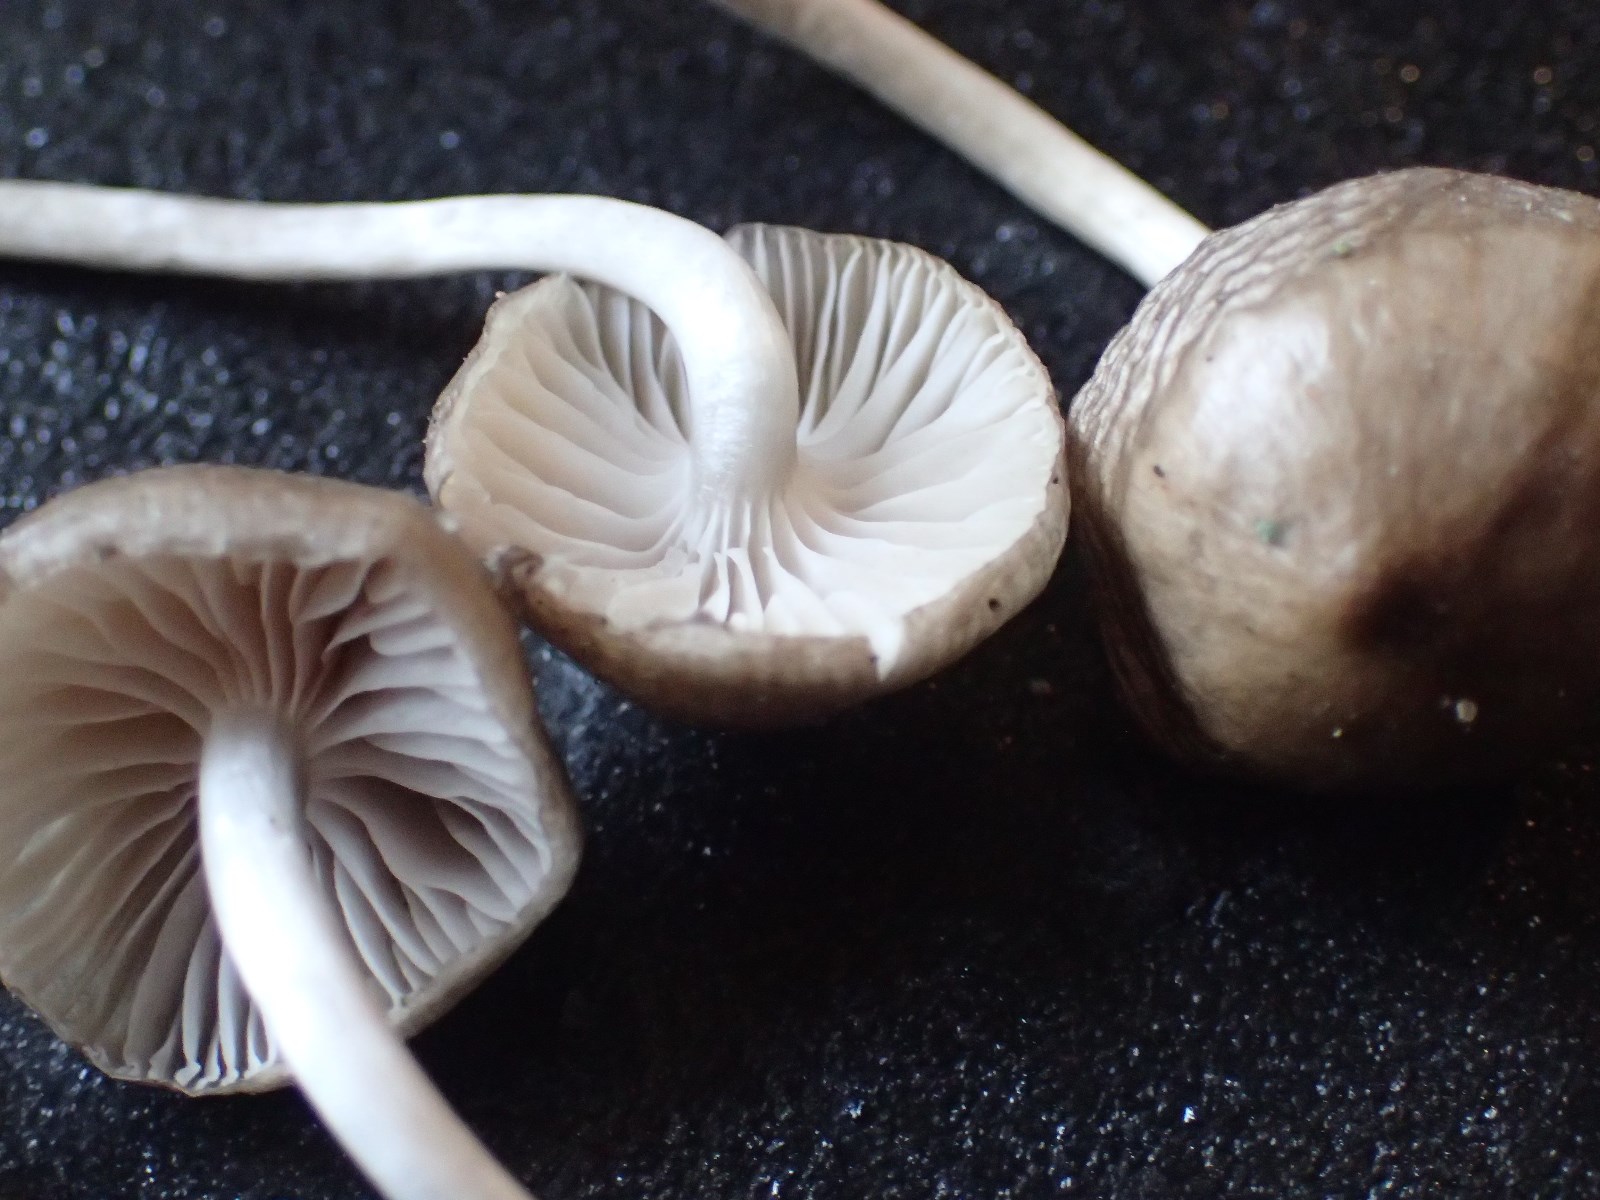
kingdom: Fungi
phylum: Basidiomycota
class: Agaricomycetes
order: Agaricales
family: Mycenaceae
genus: Mycena
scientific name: Mycena tintinnabulum
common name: vinter-huesvamp
